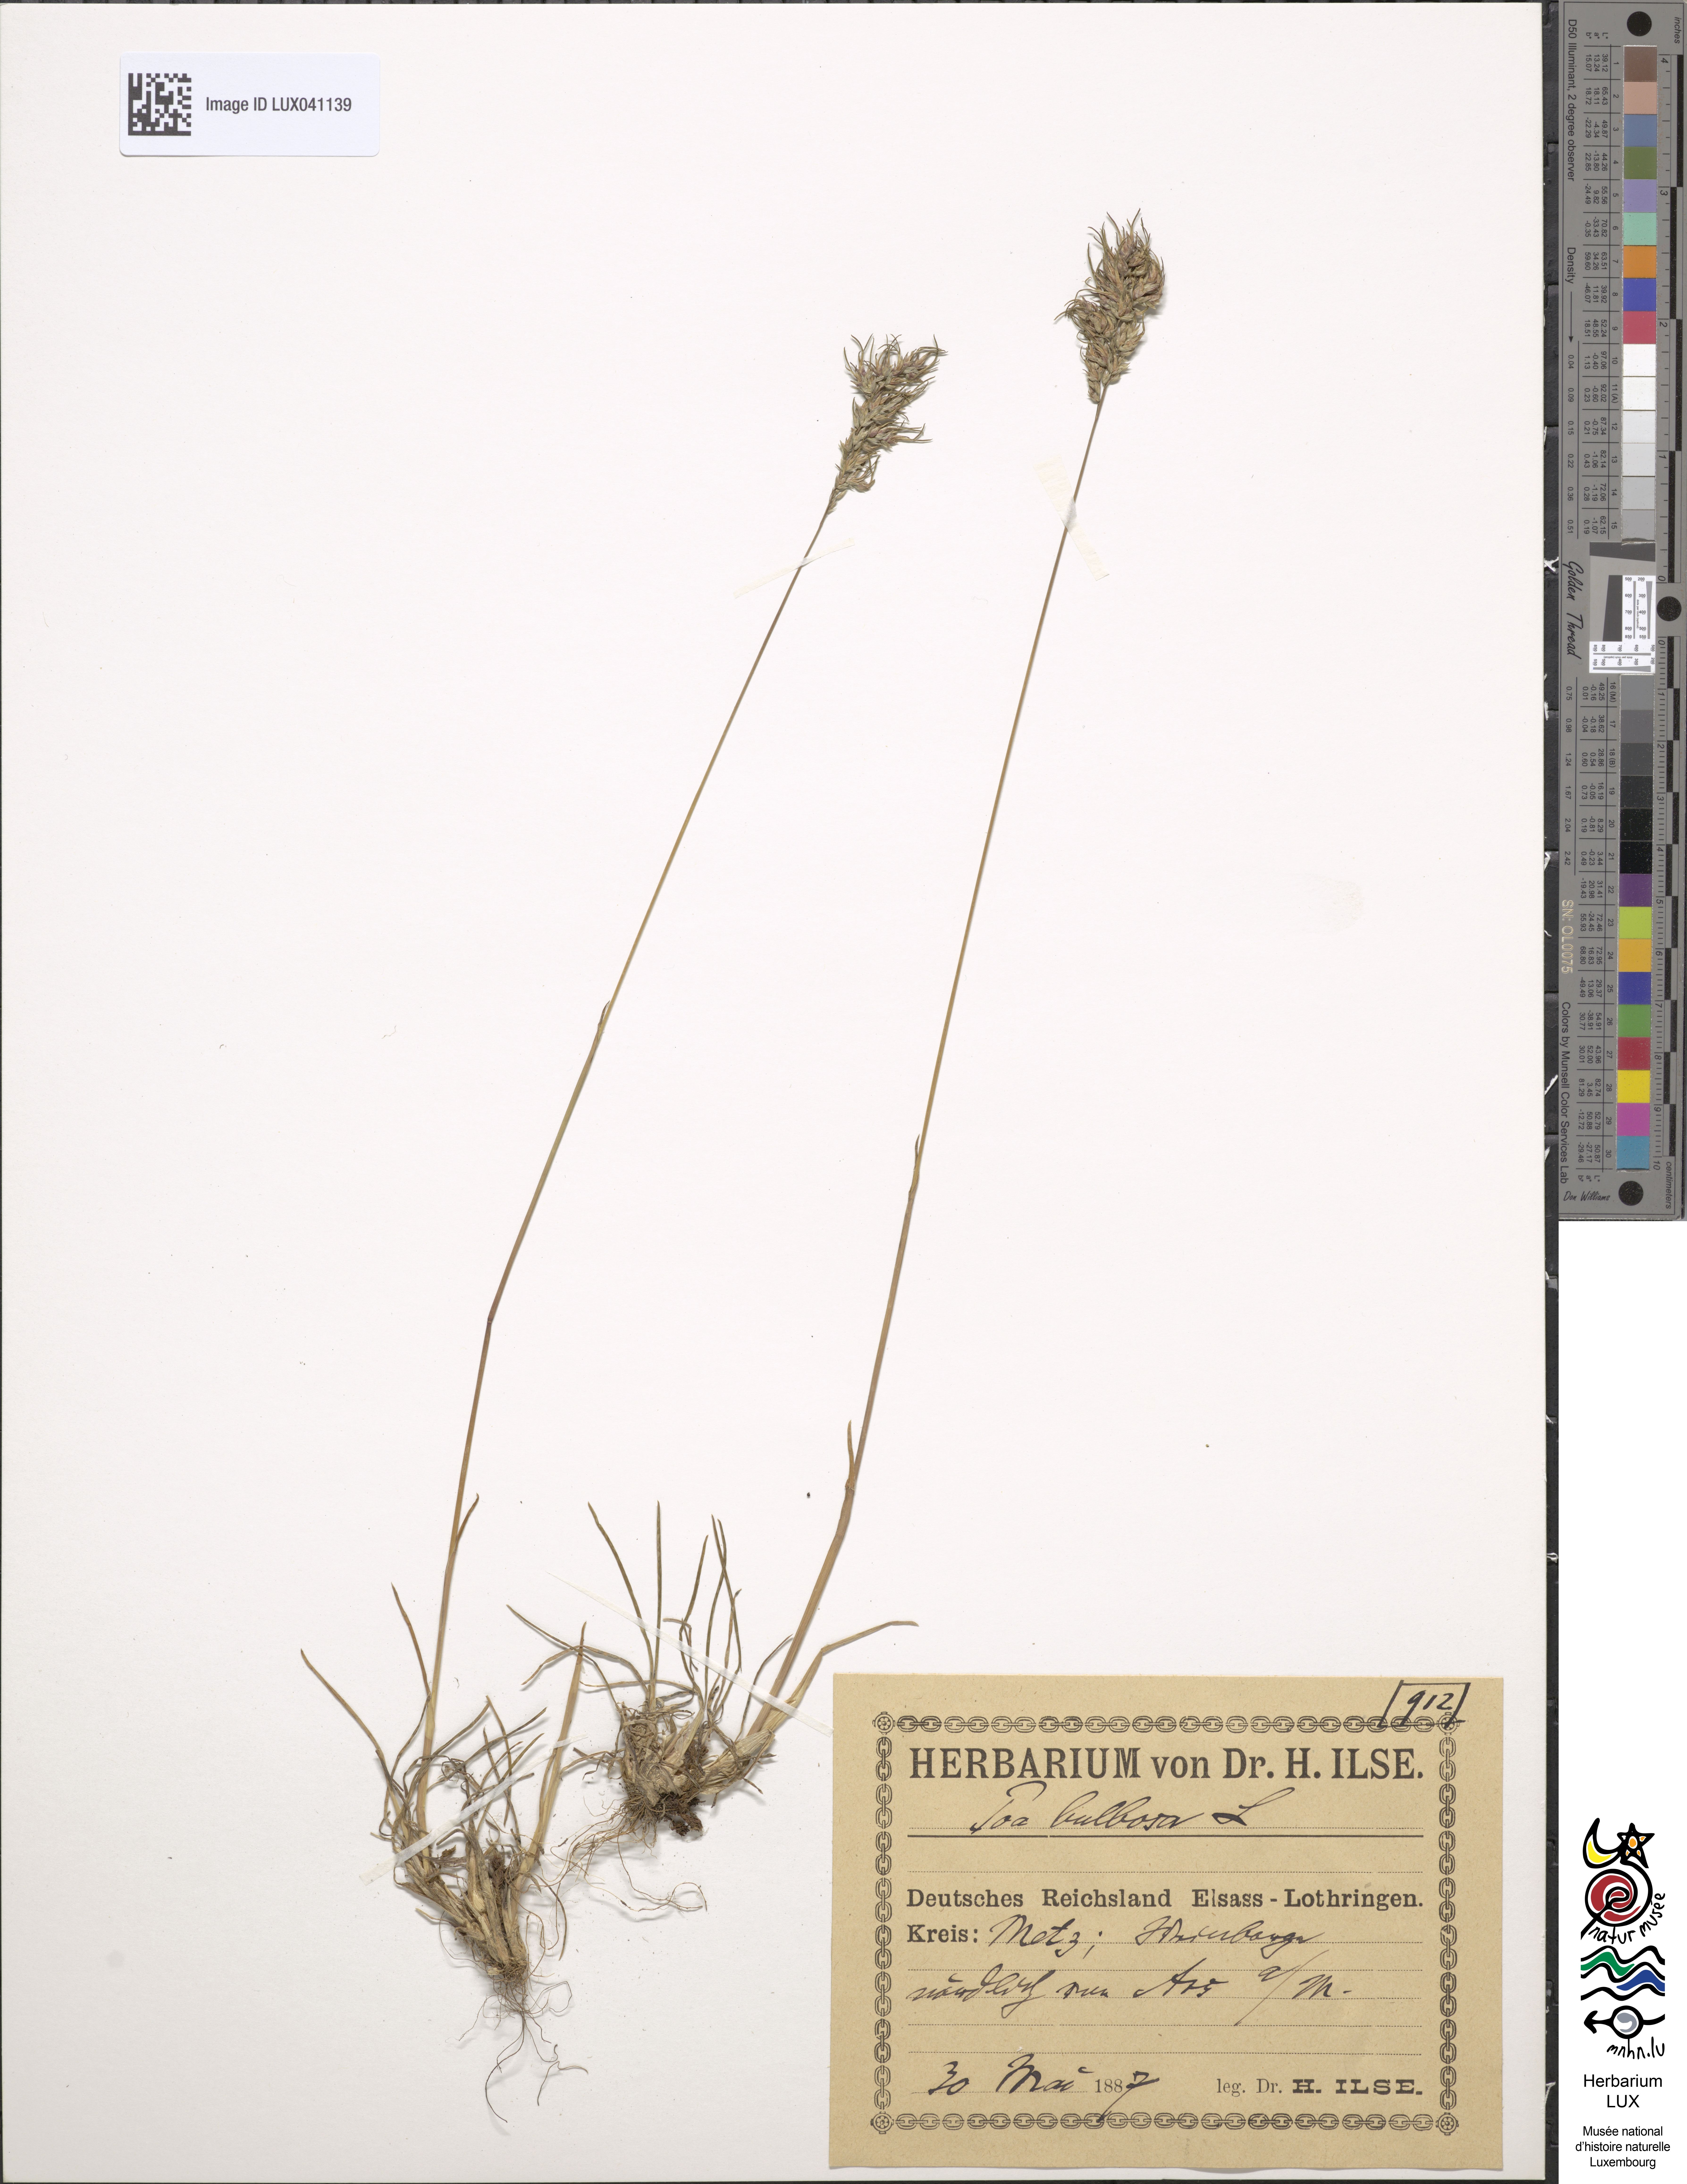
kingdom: Plantae
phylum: Tracheophyta
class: Liliopsida
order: Poales
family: Poaceae
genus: Poa
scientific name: Poa bulbosa
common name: Bulbous bluegrass
